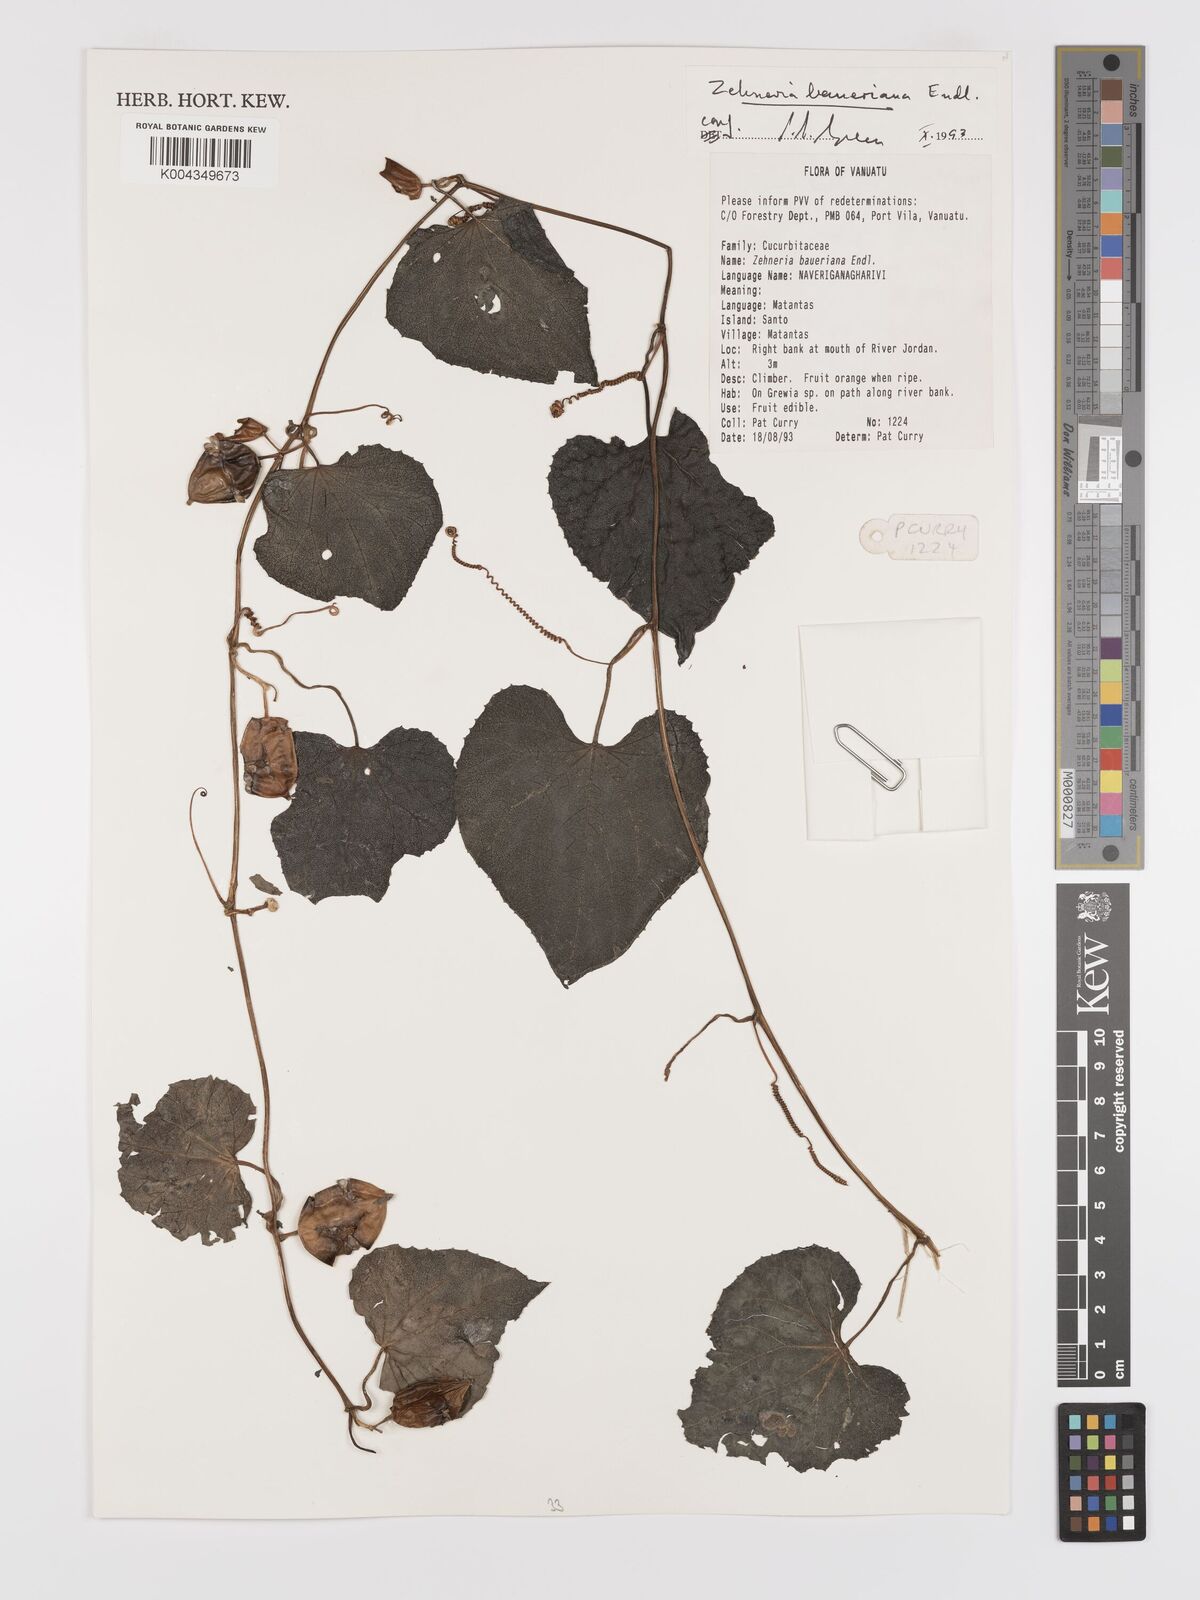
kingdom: Plantae
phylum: Tracheophyta
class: Magnoliopsida
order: Cucurbitales
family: Cucurbitaceae
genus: Zehneria
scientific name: Zehneria mucronata
